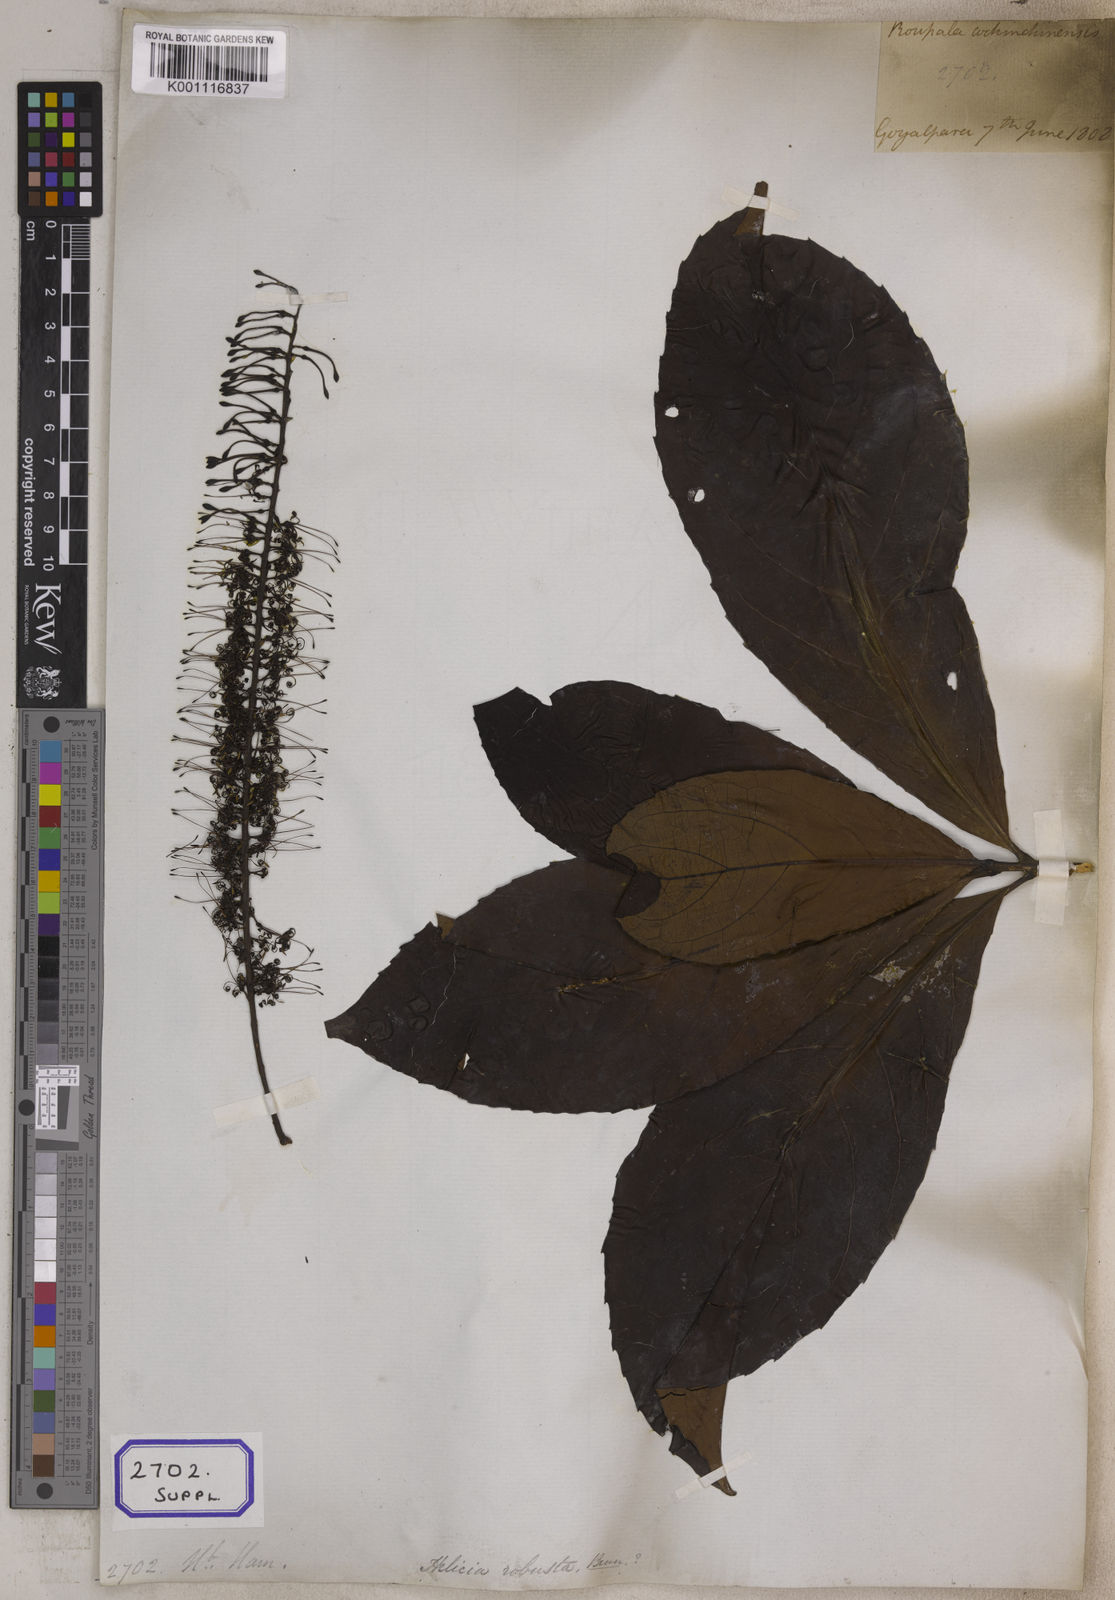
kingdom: Plantae
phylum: Tracheophyta
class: Magnoliopsida
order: Proteales
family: Proteaceae
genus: Helicia
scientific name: Helicia
